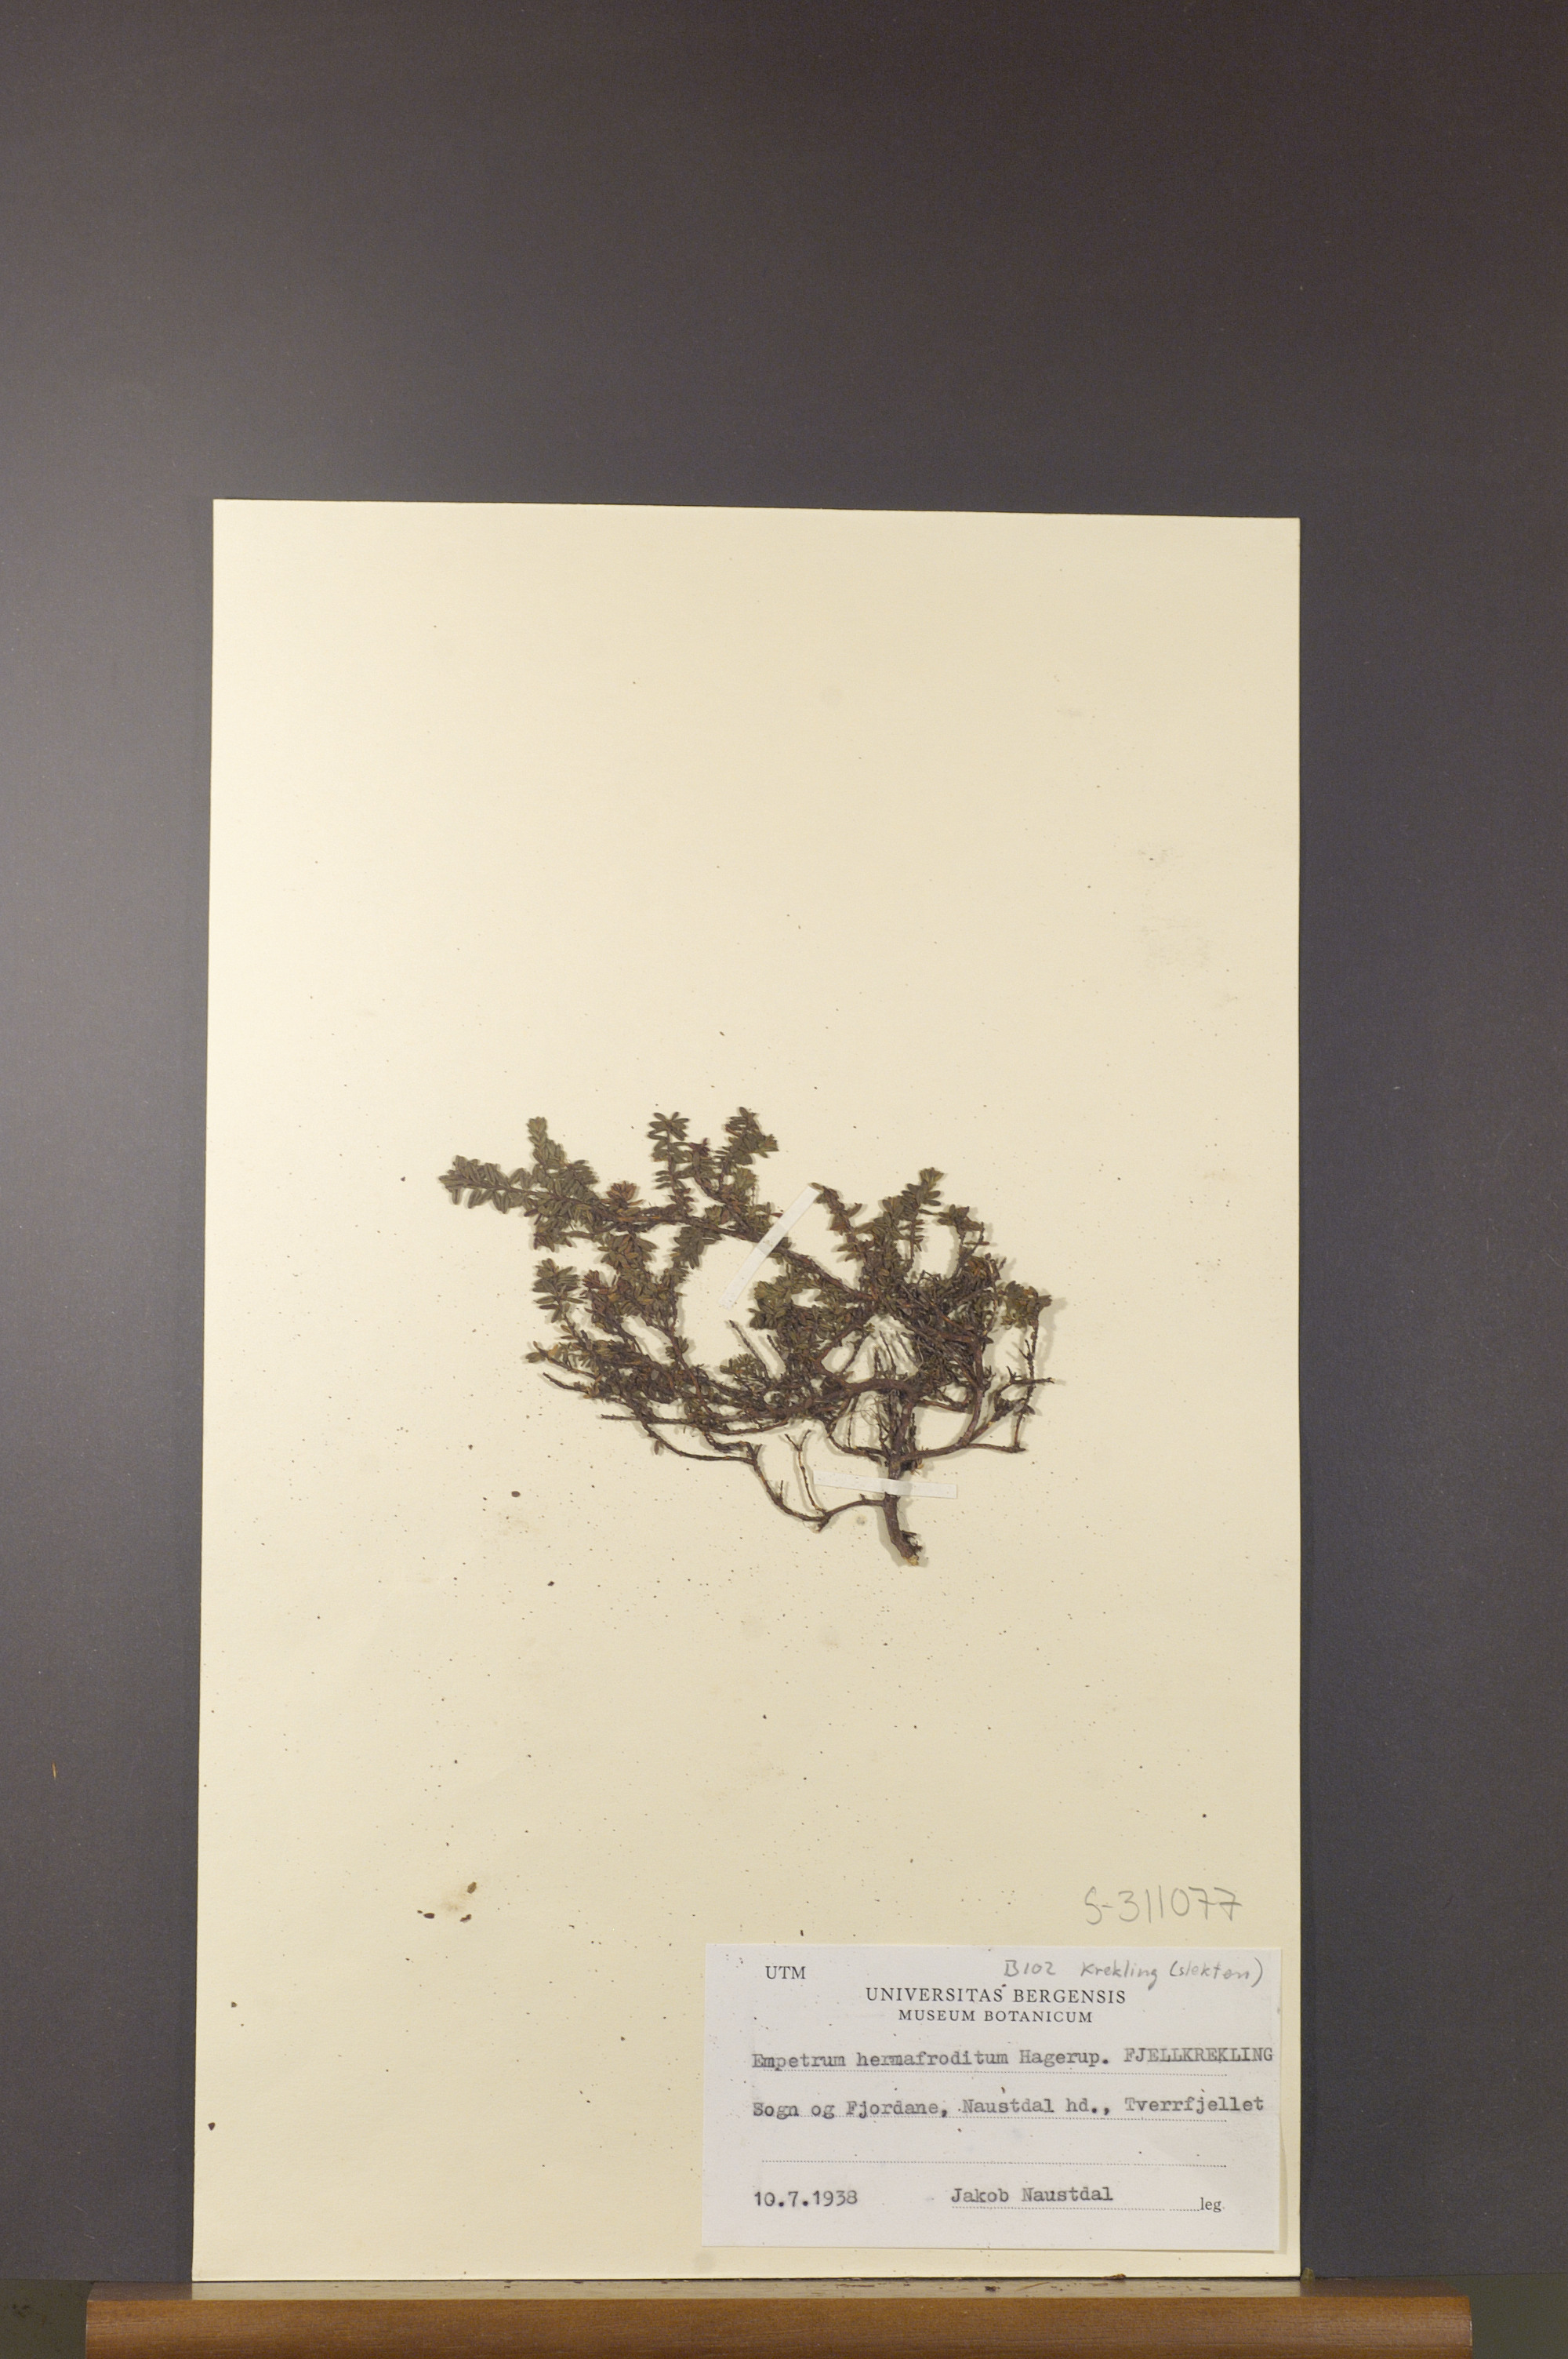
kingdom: Plantae
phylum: Tracheophyta
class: Magnoliopsida
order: Ericales
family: Ericaceae
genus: Empetrum
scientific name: Empetrum hermaphroditum
